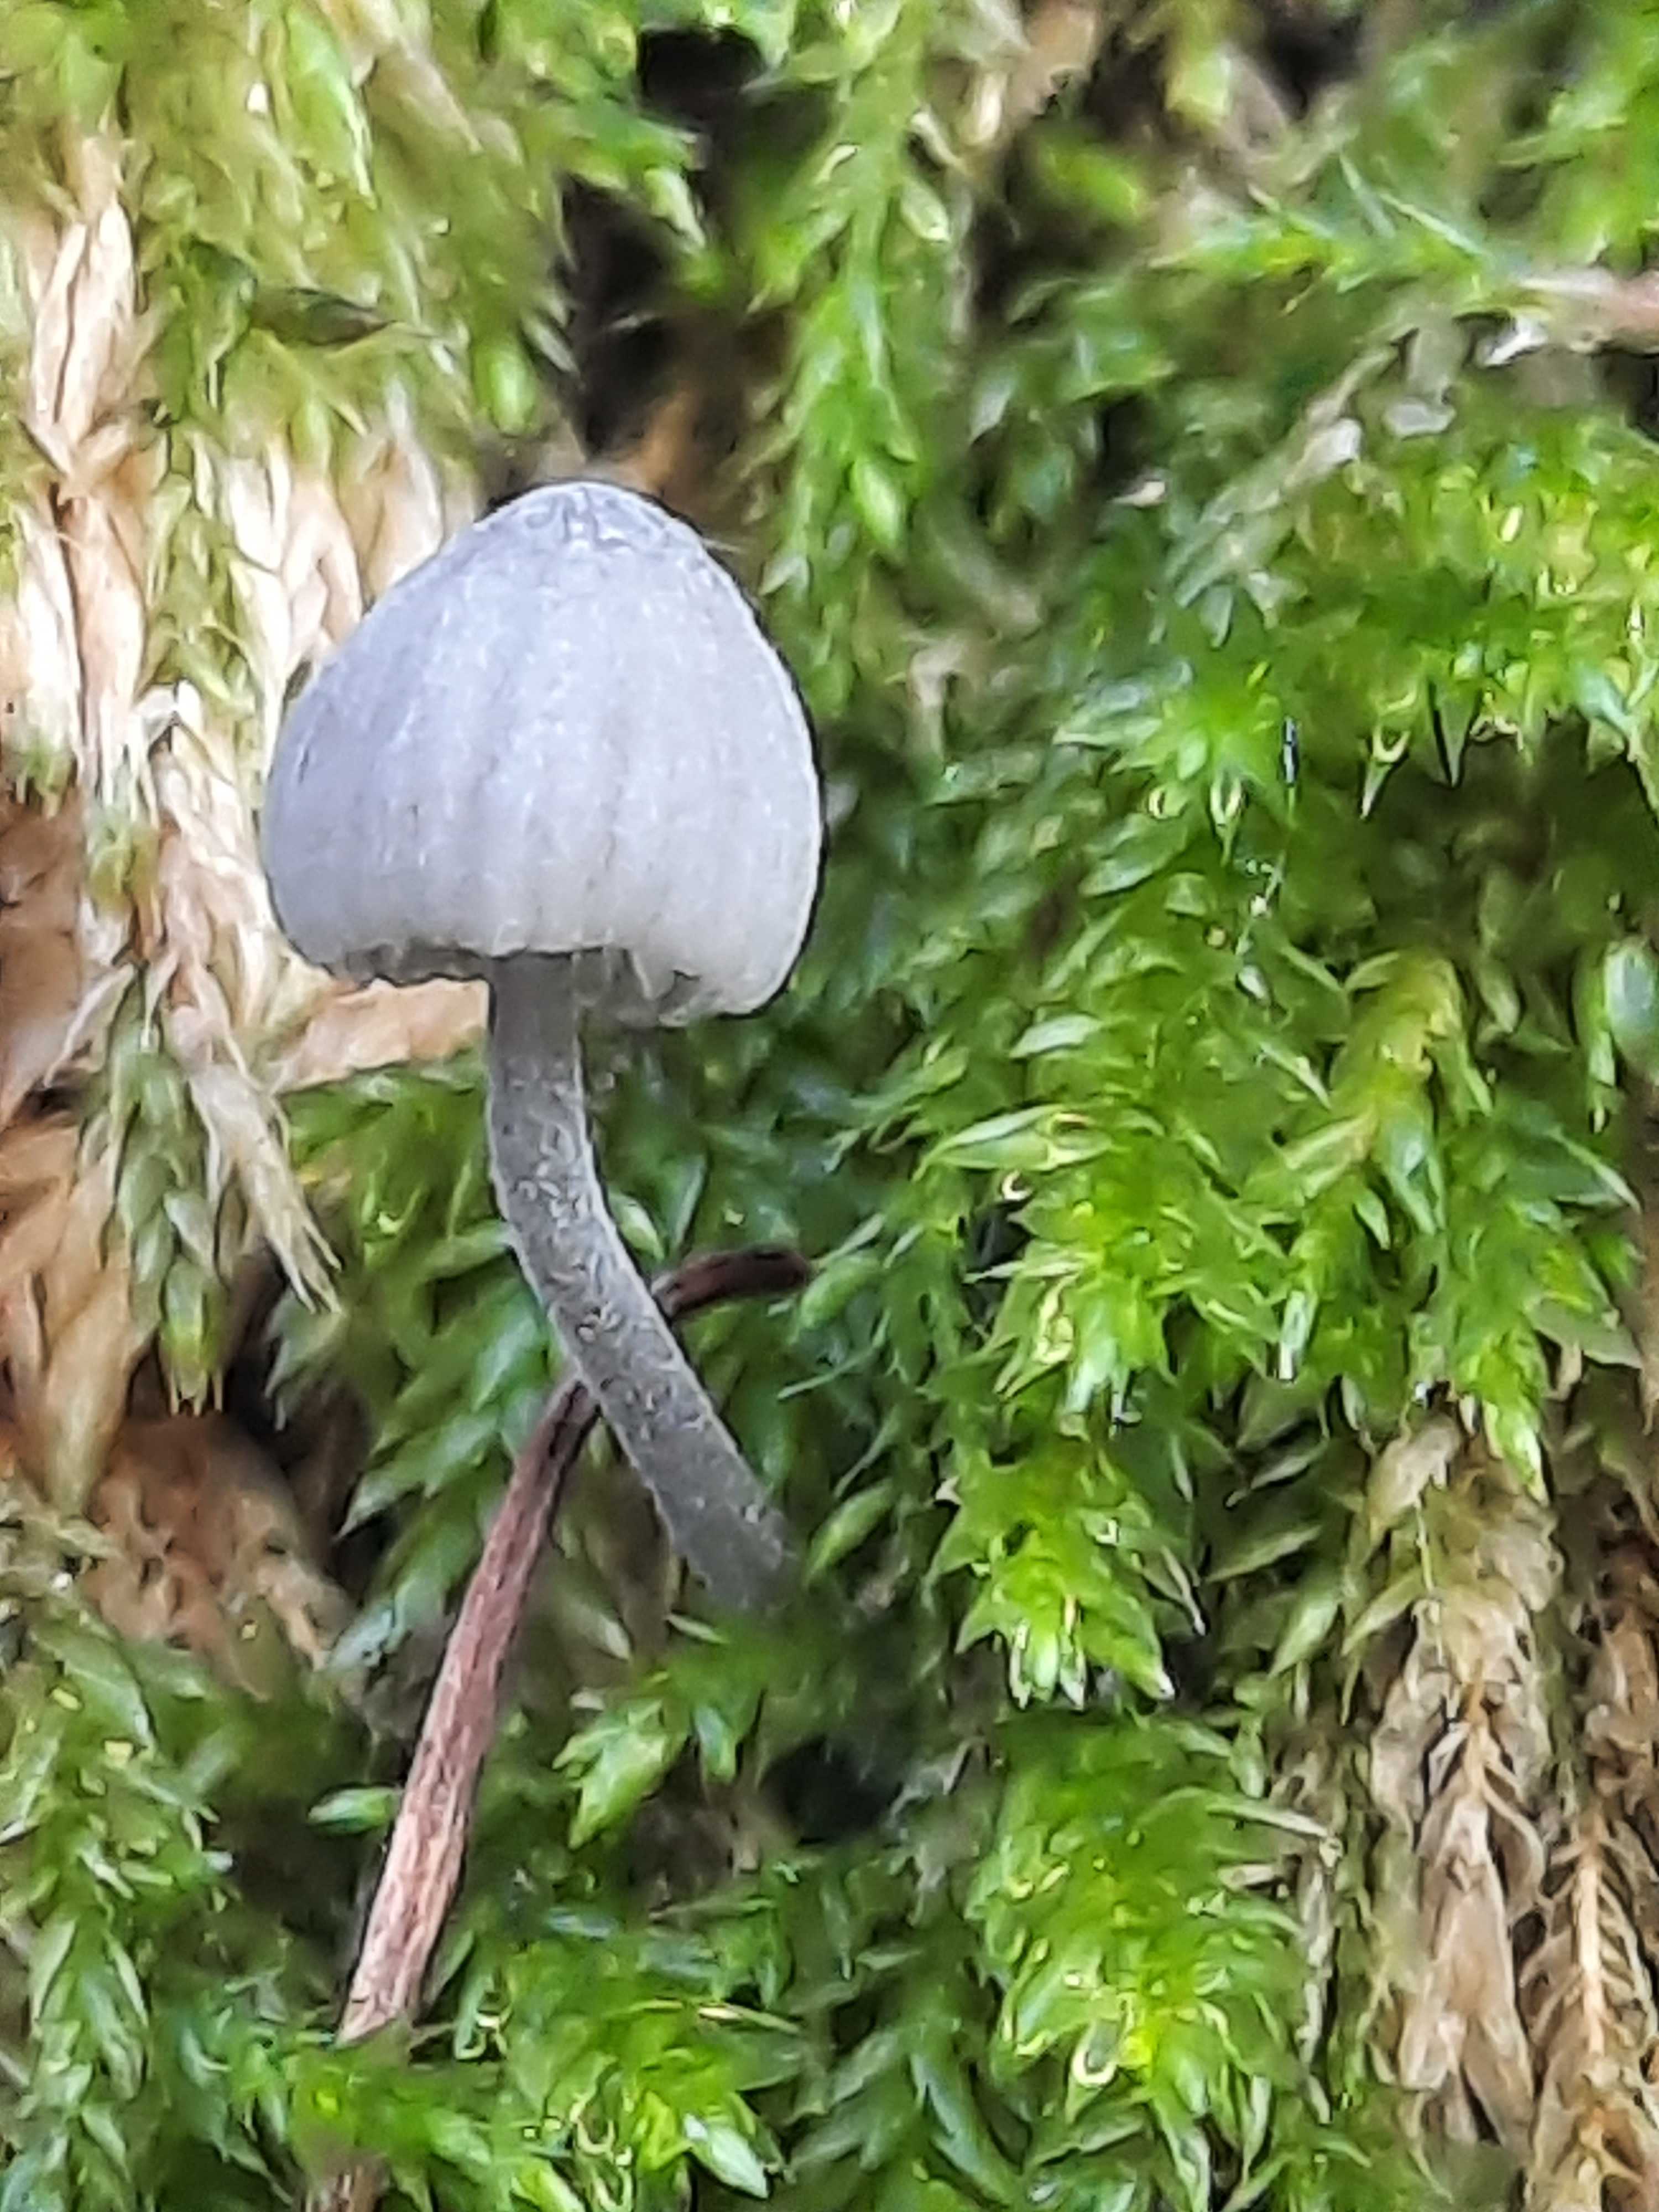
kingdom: Fungi
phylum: Basidiomycota
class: Agaricomycetes
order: Agaricales
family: Mycenaceae
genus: Mycena
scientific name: Mycena pseudocorticola
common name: gråblå bark-huesvamp
